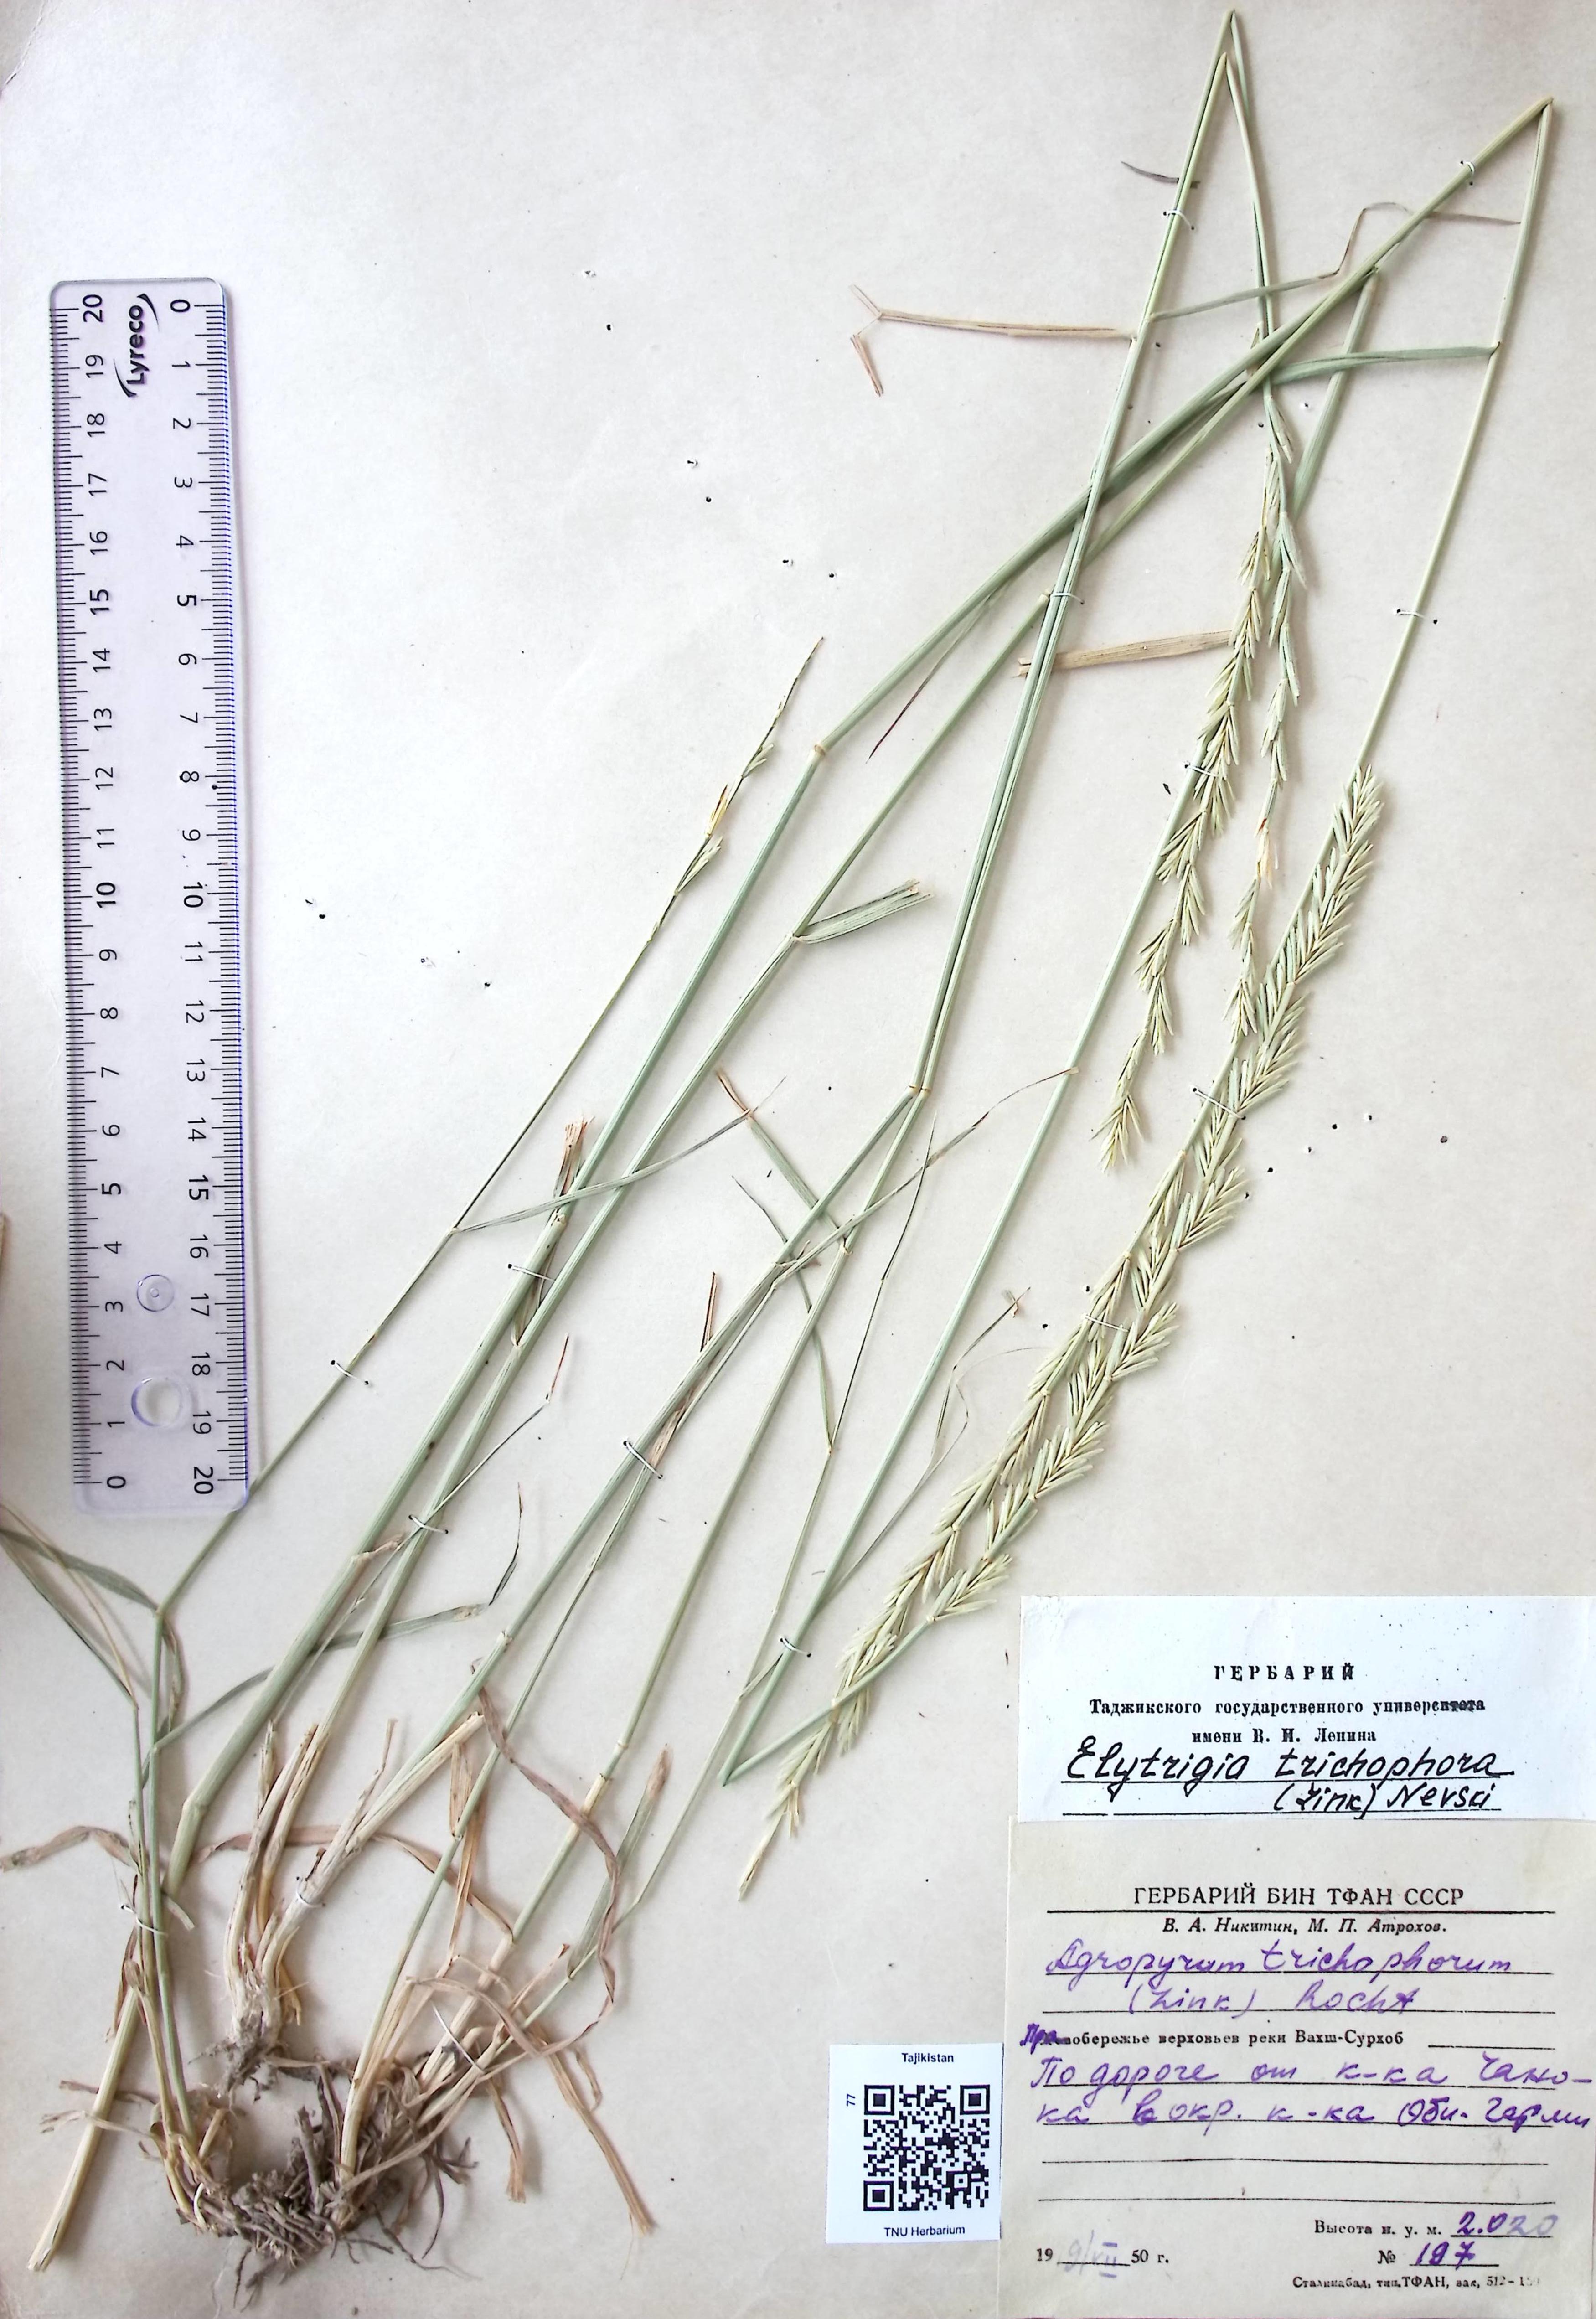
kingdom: Plantae
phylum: Tracheophyta
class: Liliopsida
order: Poales
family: Poaceae
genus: Thinopyrum
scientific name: Thinopyrum intermedium
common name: Intermediate wheatgrass
